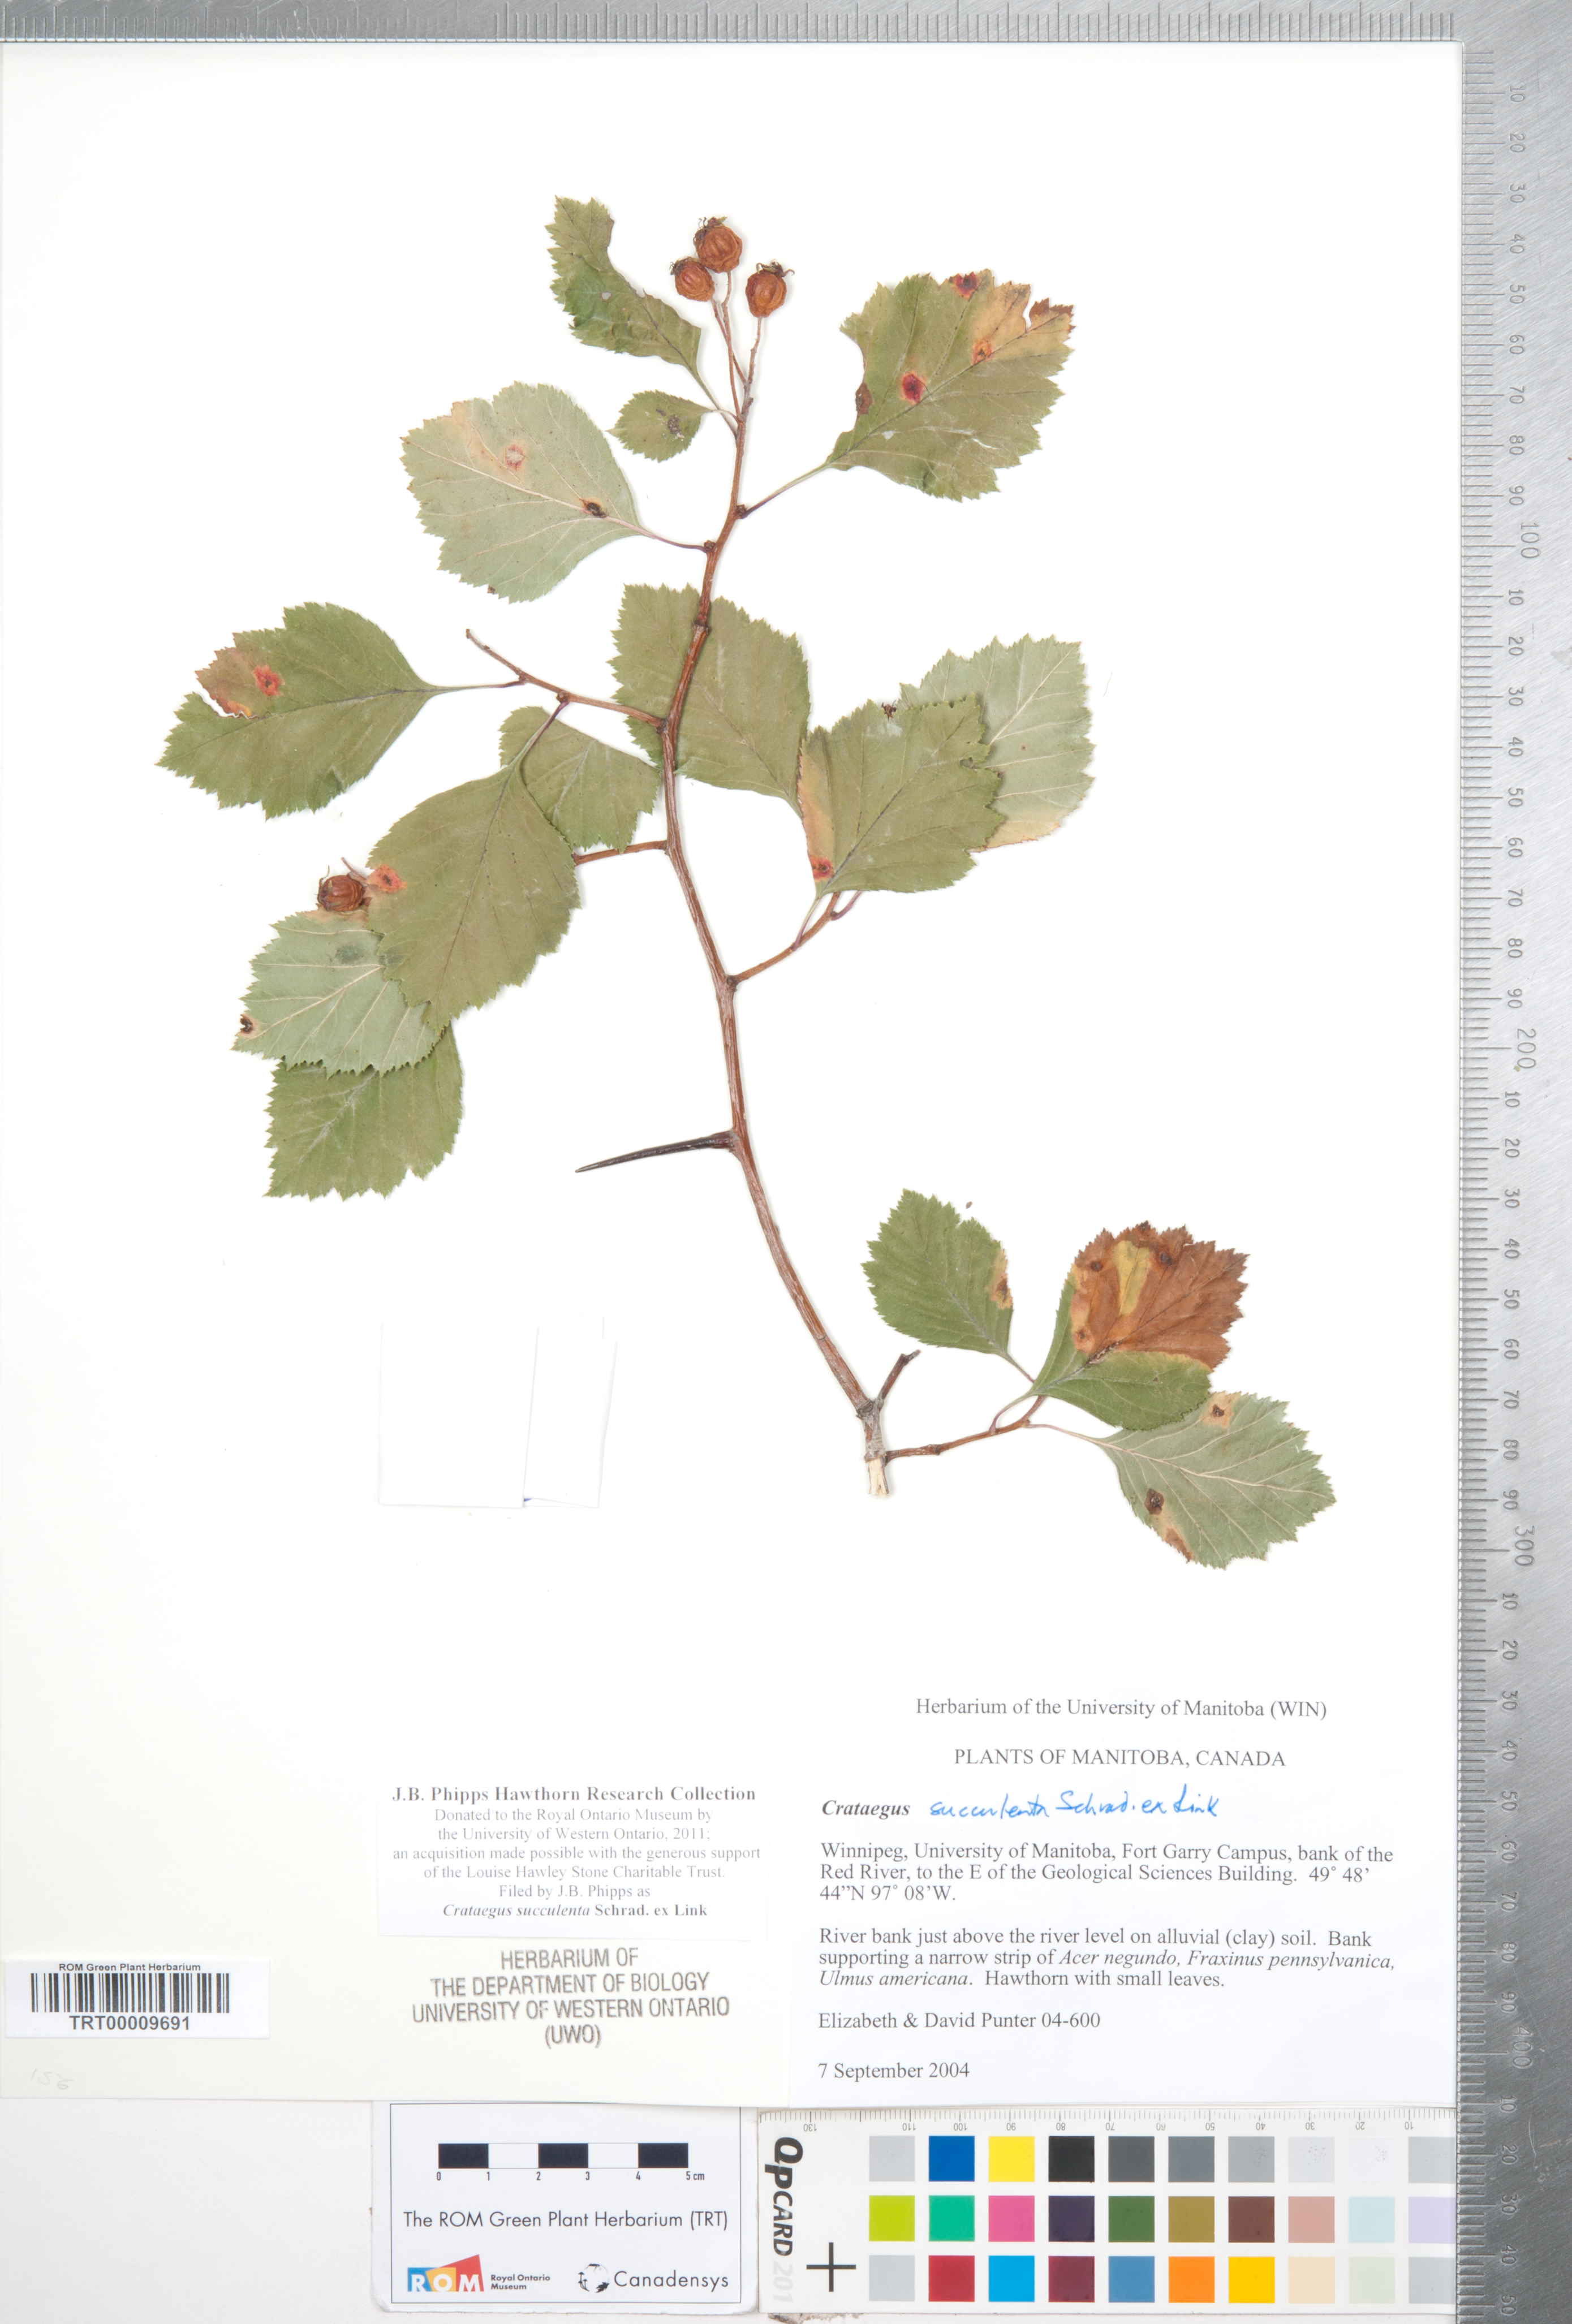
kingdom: Plantae
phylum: Tracheophyta
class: Magnoliopsida
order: Rosales
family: Rosaceae
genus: Crataegus
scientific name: Crataegus succulenta
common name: Fleshy hawthorn
